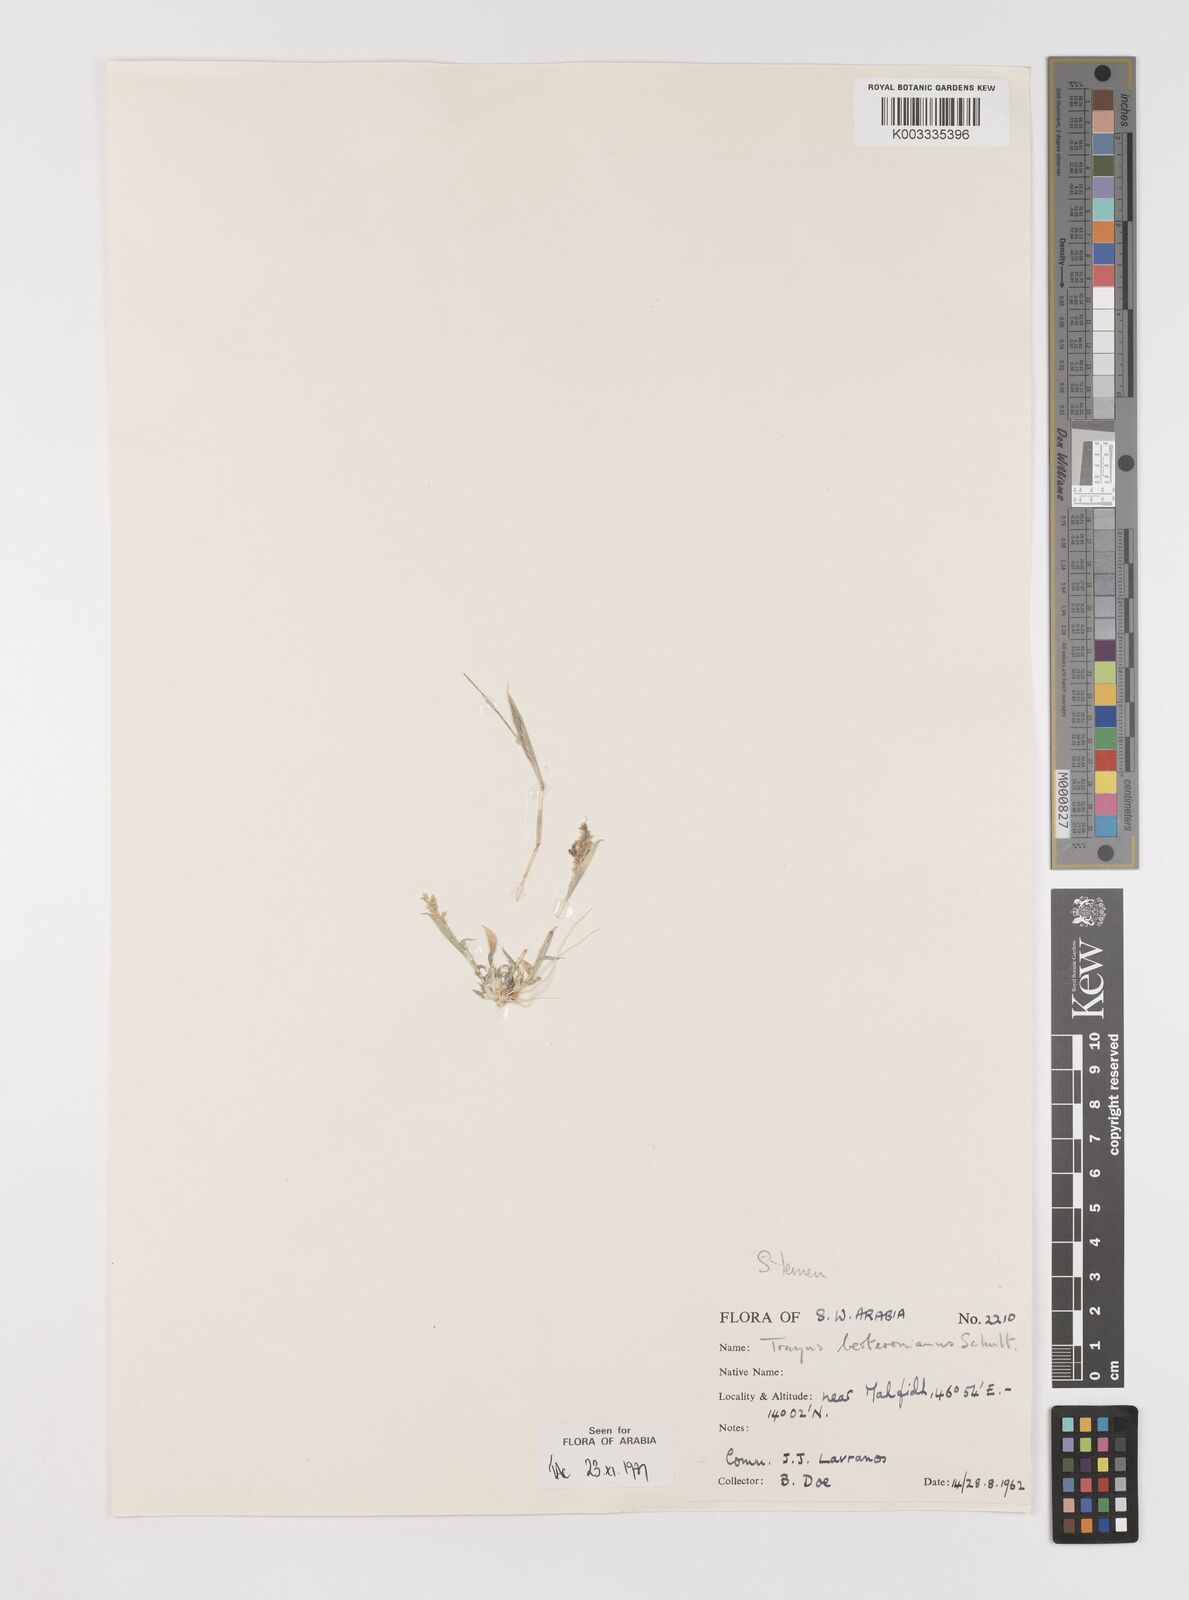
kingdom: Plantae
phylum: Tracheophyta
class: Liliopsida
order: Poales
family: Poaceae
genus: Tragus
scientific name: Tragus berteronianus
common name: African bur-grass
